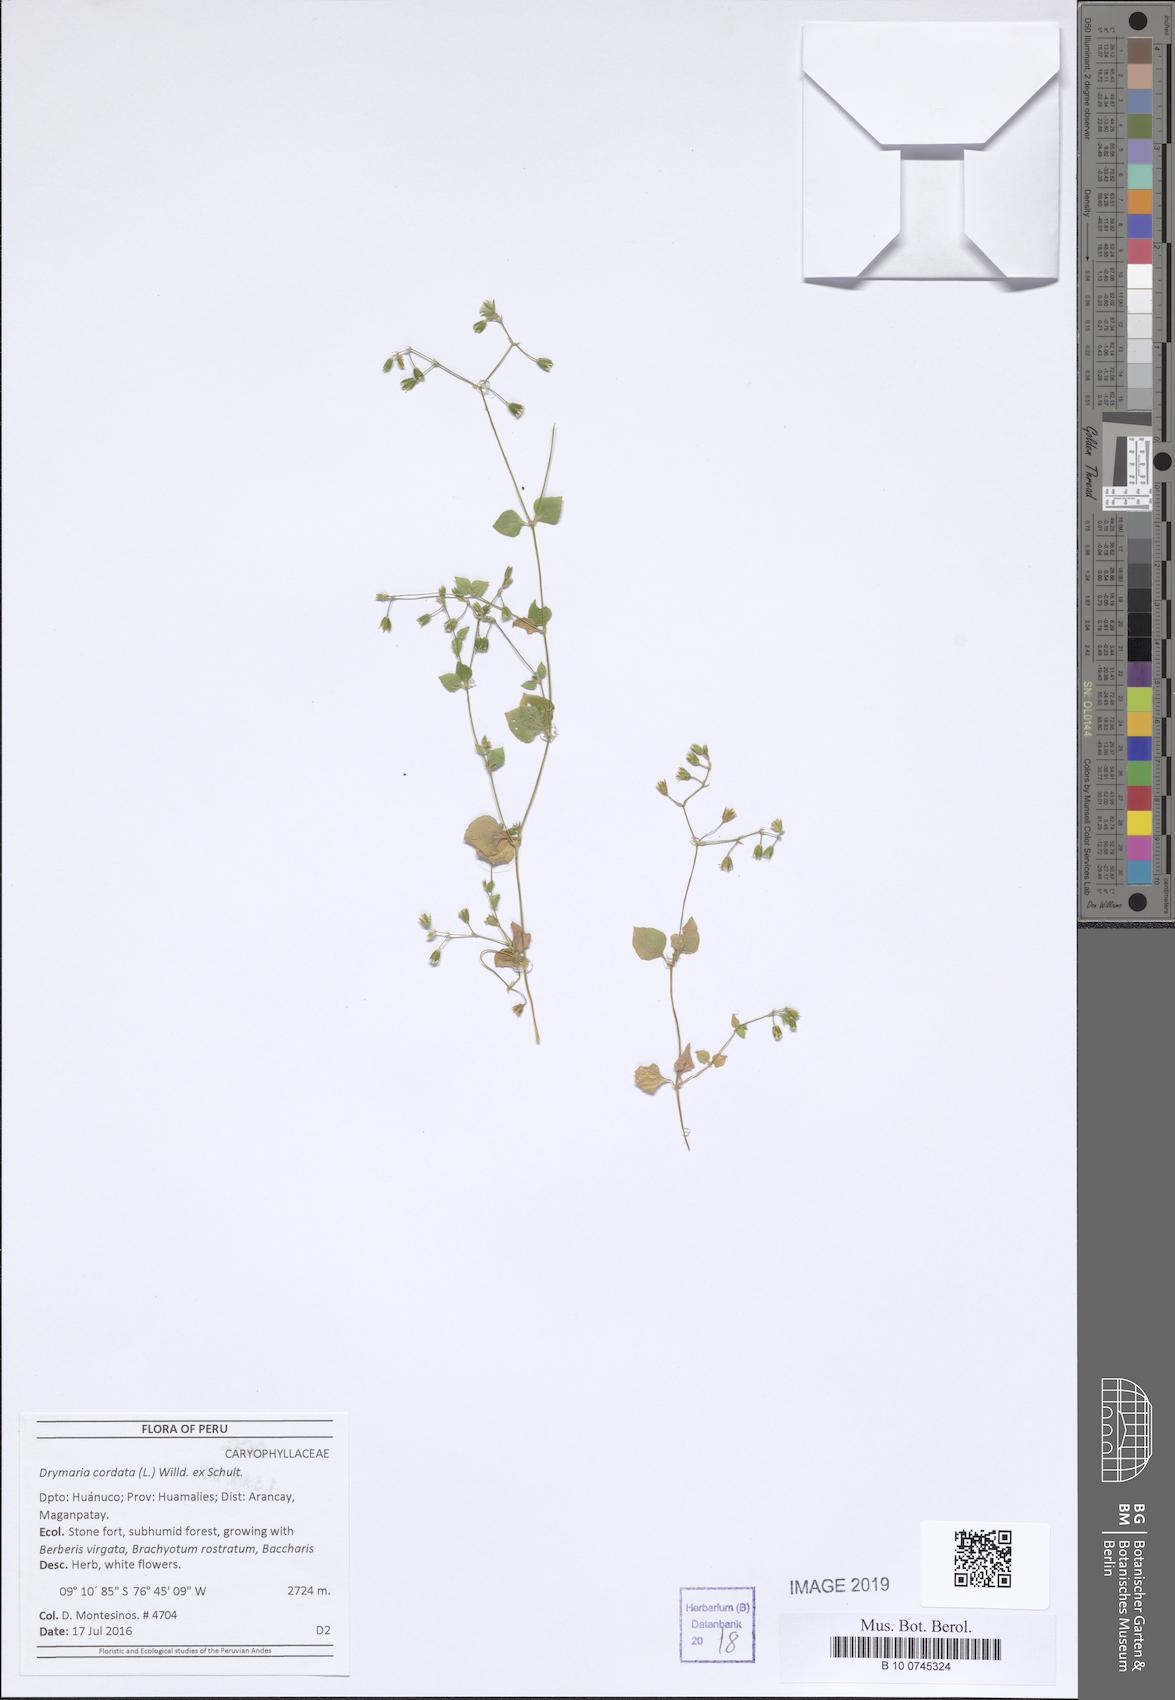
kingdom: Plantae
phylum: Tracheophyta
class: Magnoliopsida
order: Caryophyllales
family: Caryophyllaceae
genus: Drymaria
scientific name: Drymaria cordata
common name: Whitesnow
